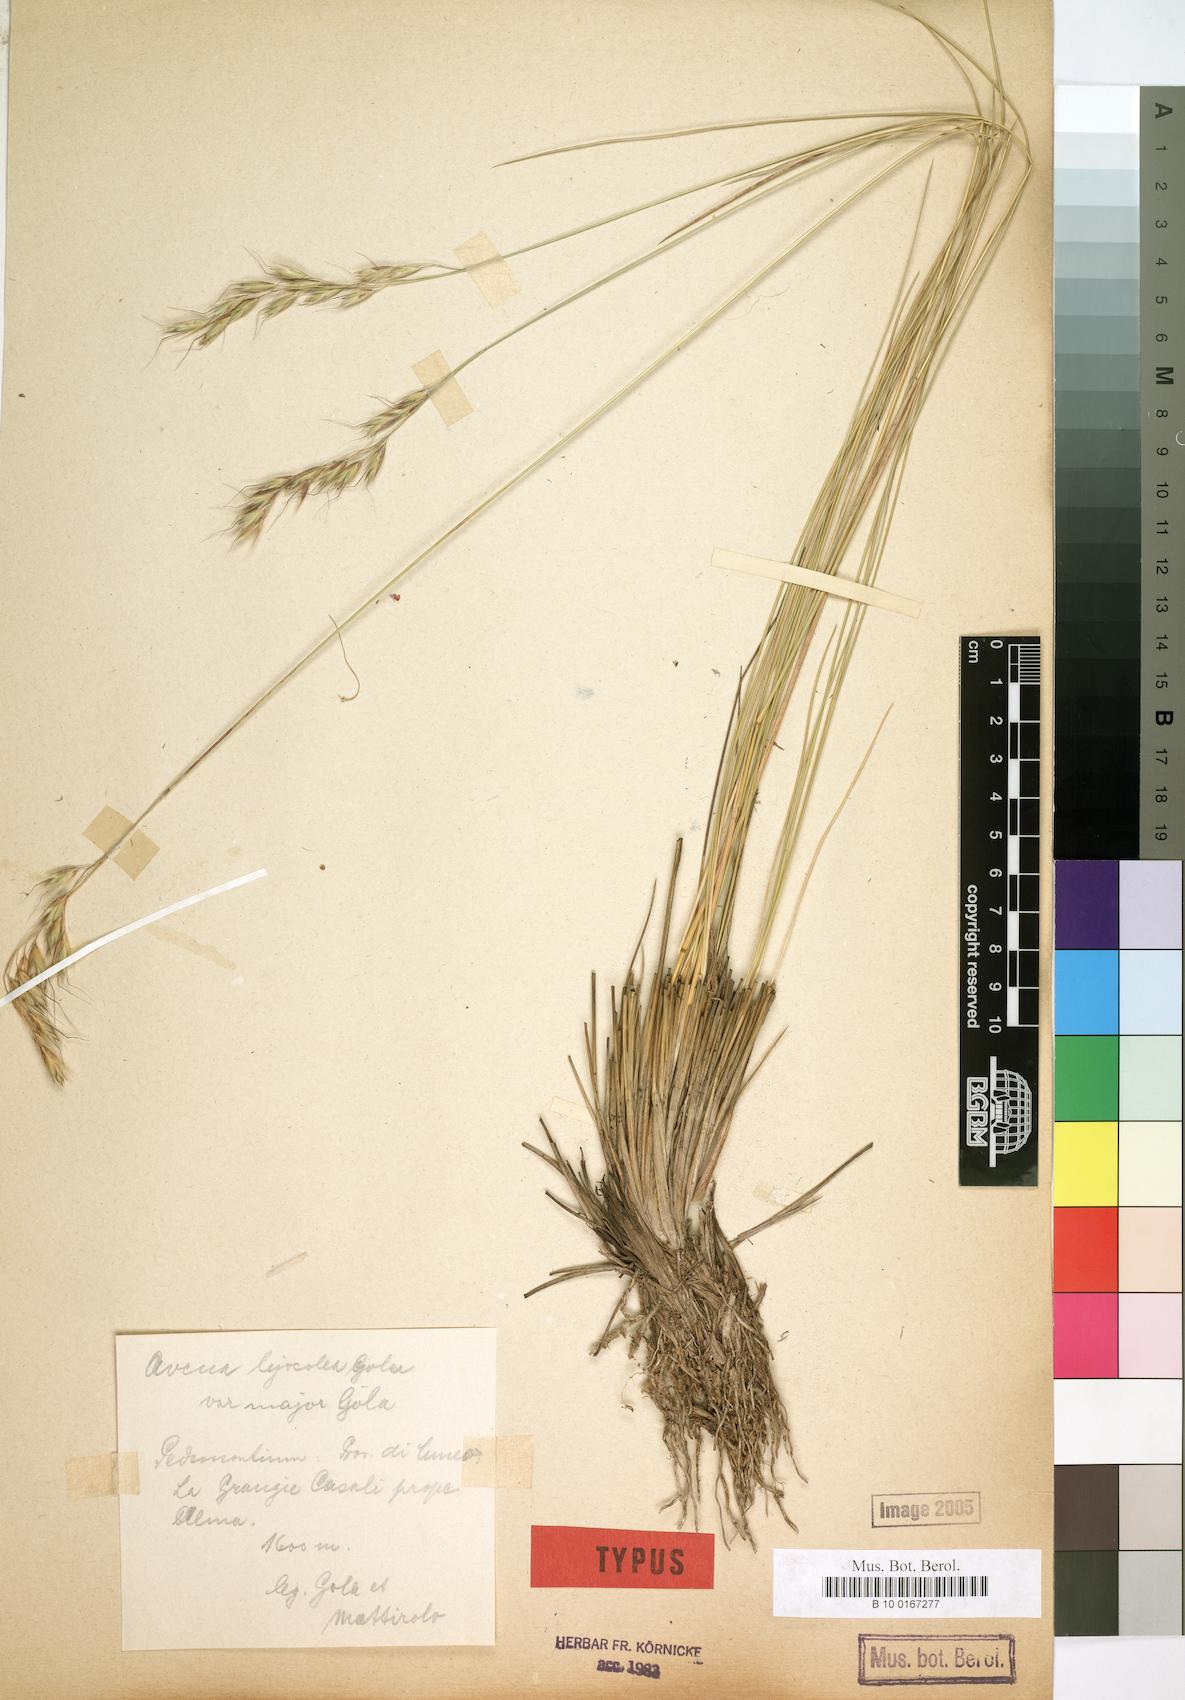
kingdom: Plantae
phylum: Tracheophyta
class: Liliopsida
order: Poales
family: Poaceae
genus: Helictotrichon
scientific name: Helictotrichon setaceum
